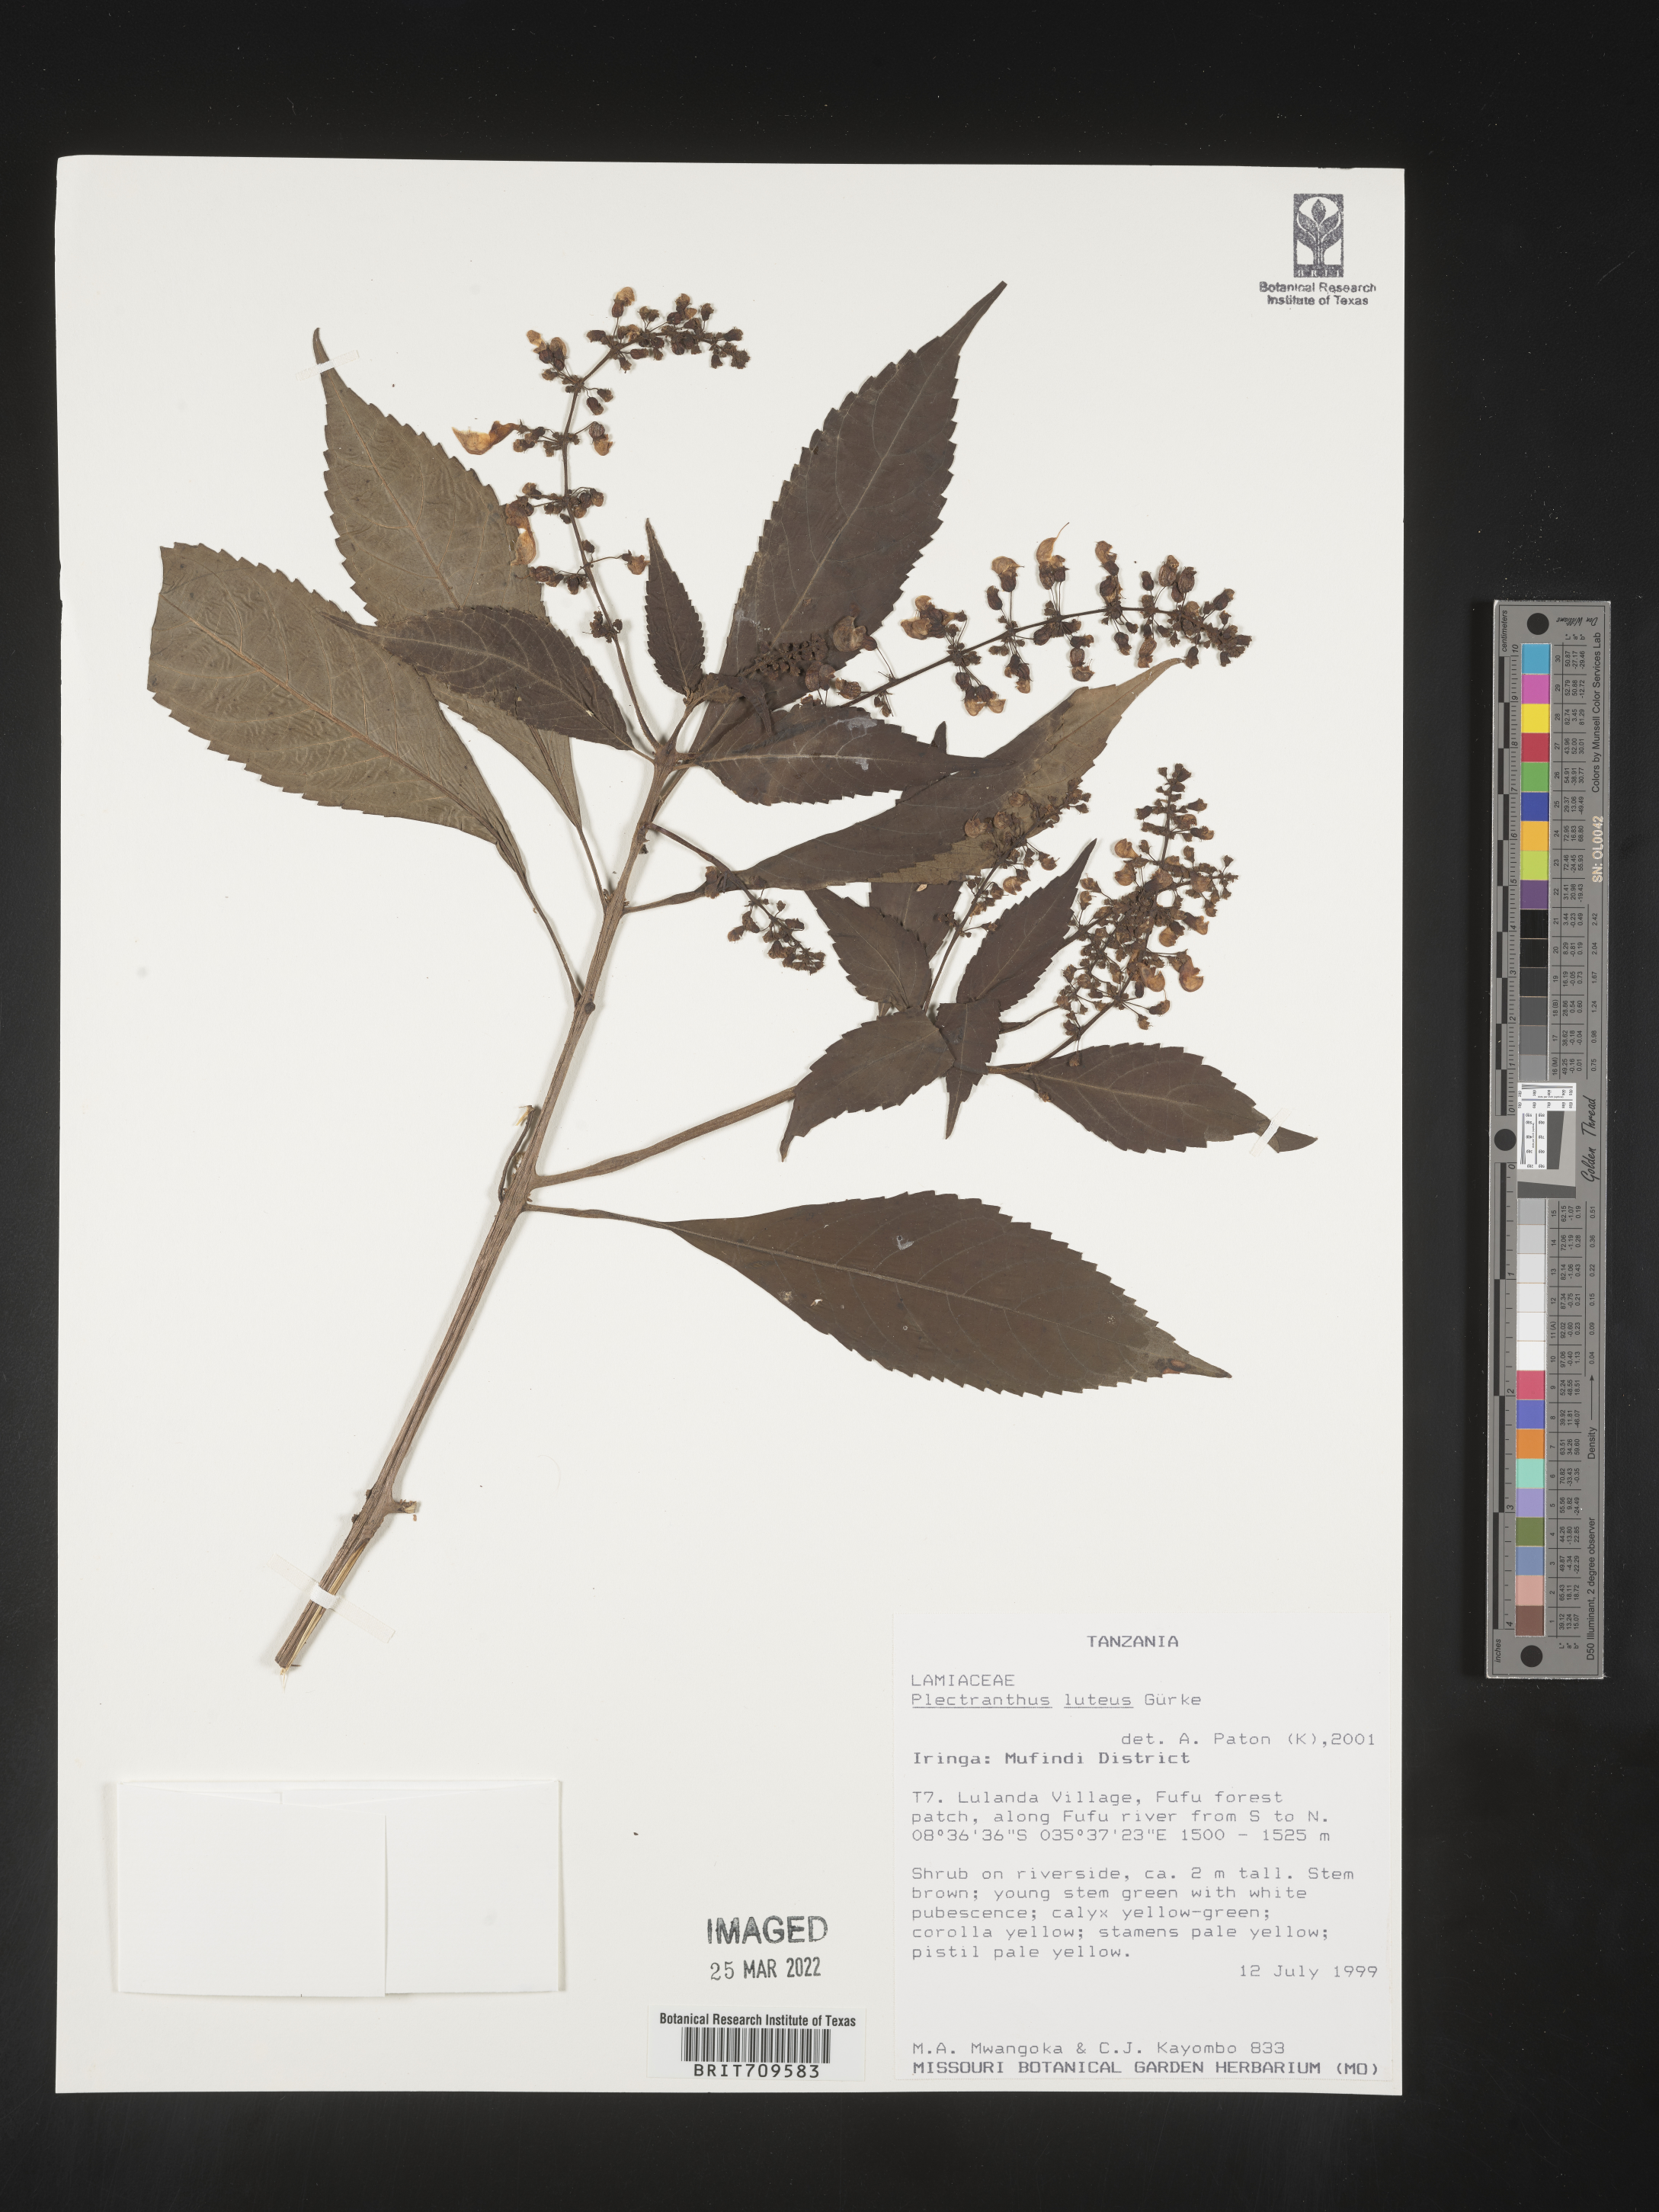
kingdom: Plantae
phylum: Tracheophyta
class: Magnoliopsida
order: Lamiales
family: Lamiaceae
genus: Plectranthus
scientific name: Plectranthus
